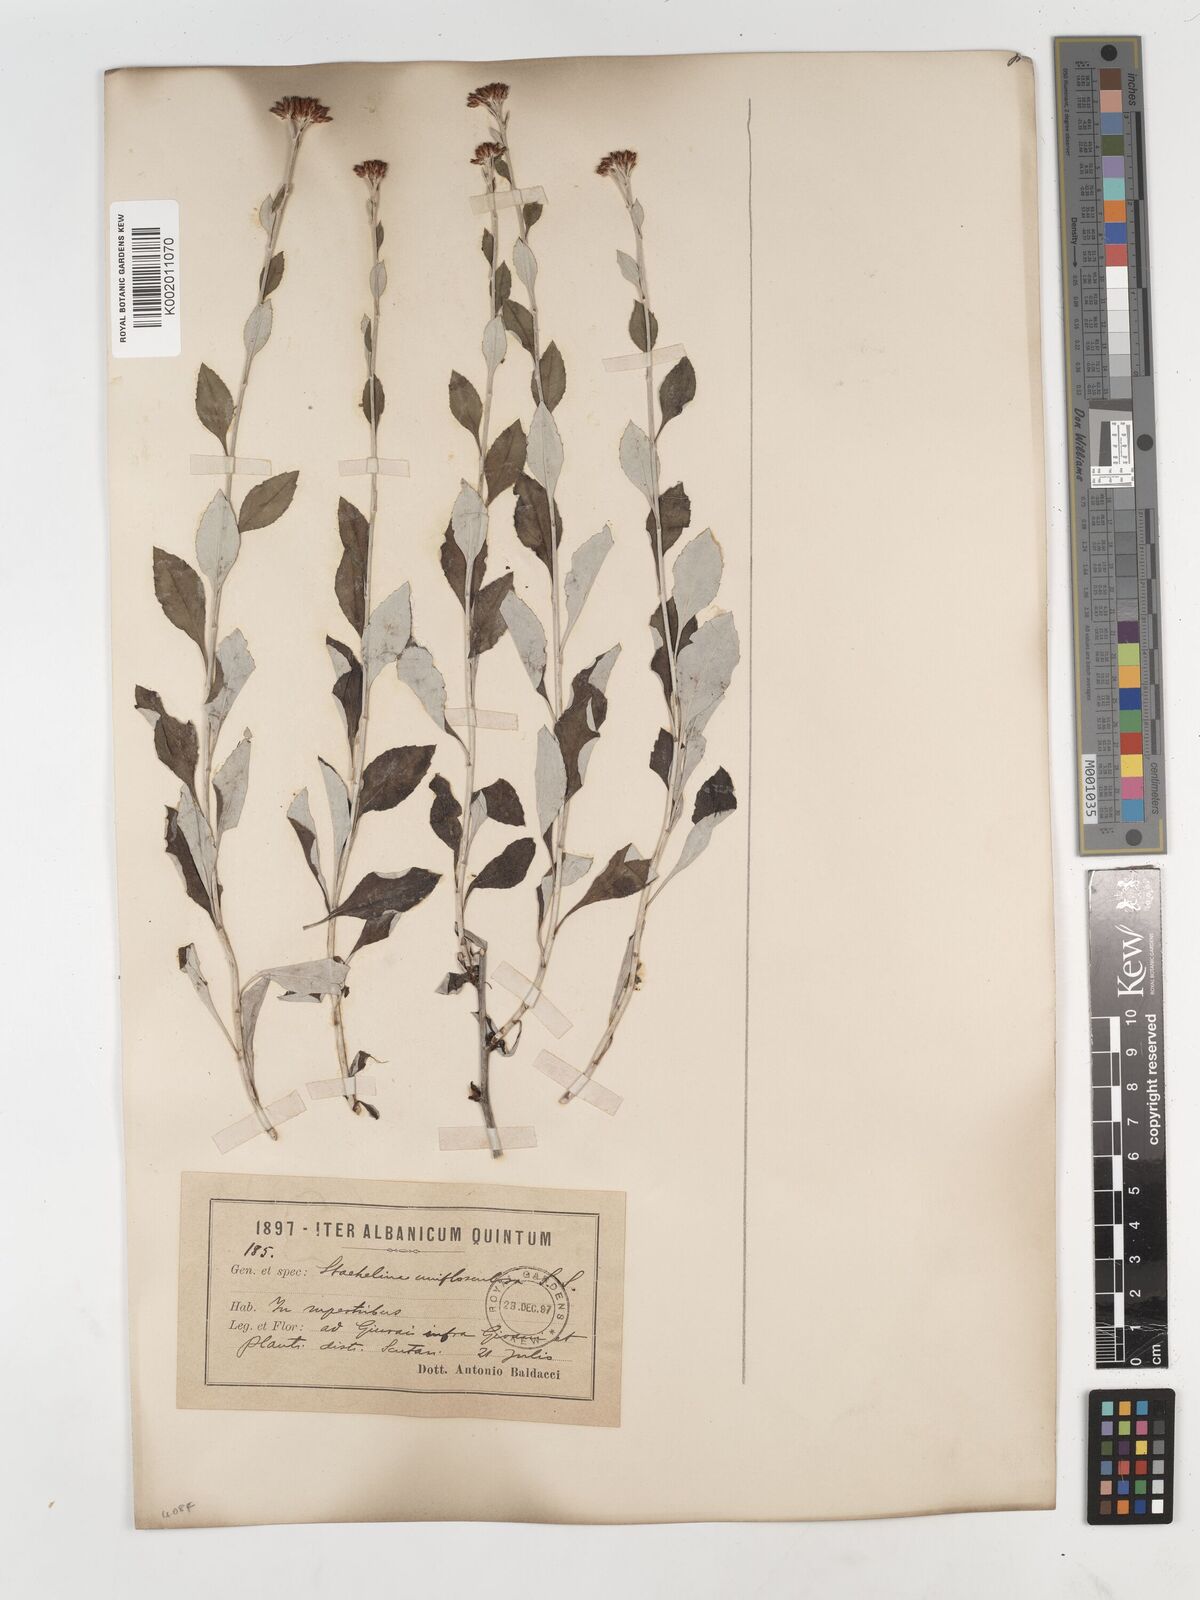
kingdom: Plantae
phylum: Tracheophyta
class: Magnoliopsida
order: Asterales
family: Asteraceae
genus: Staehelina
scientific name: Staehelina uniflosculosa
